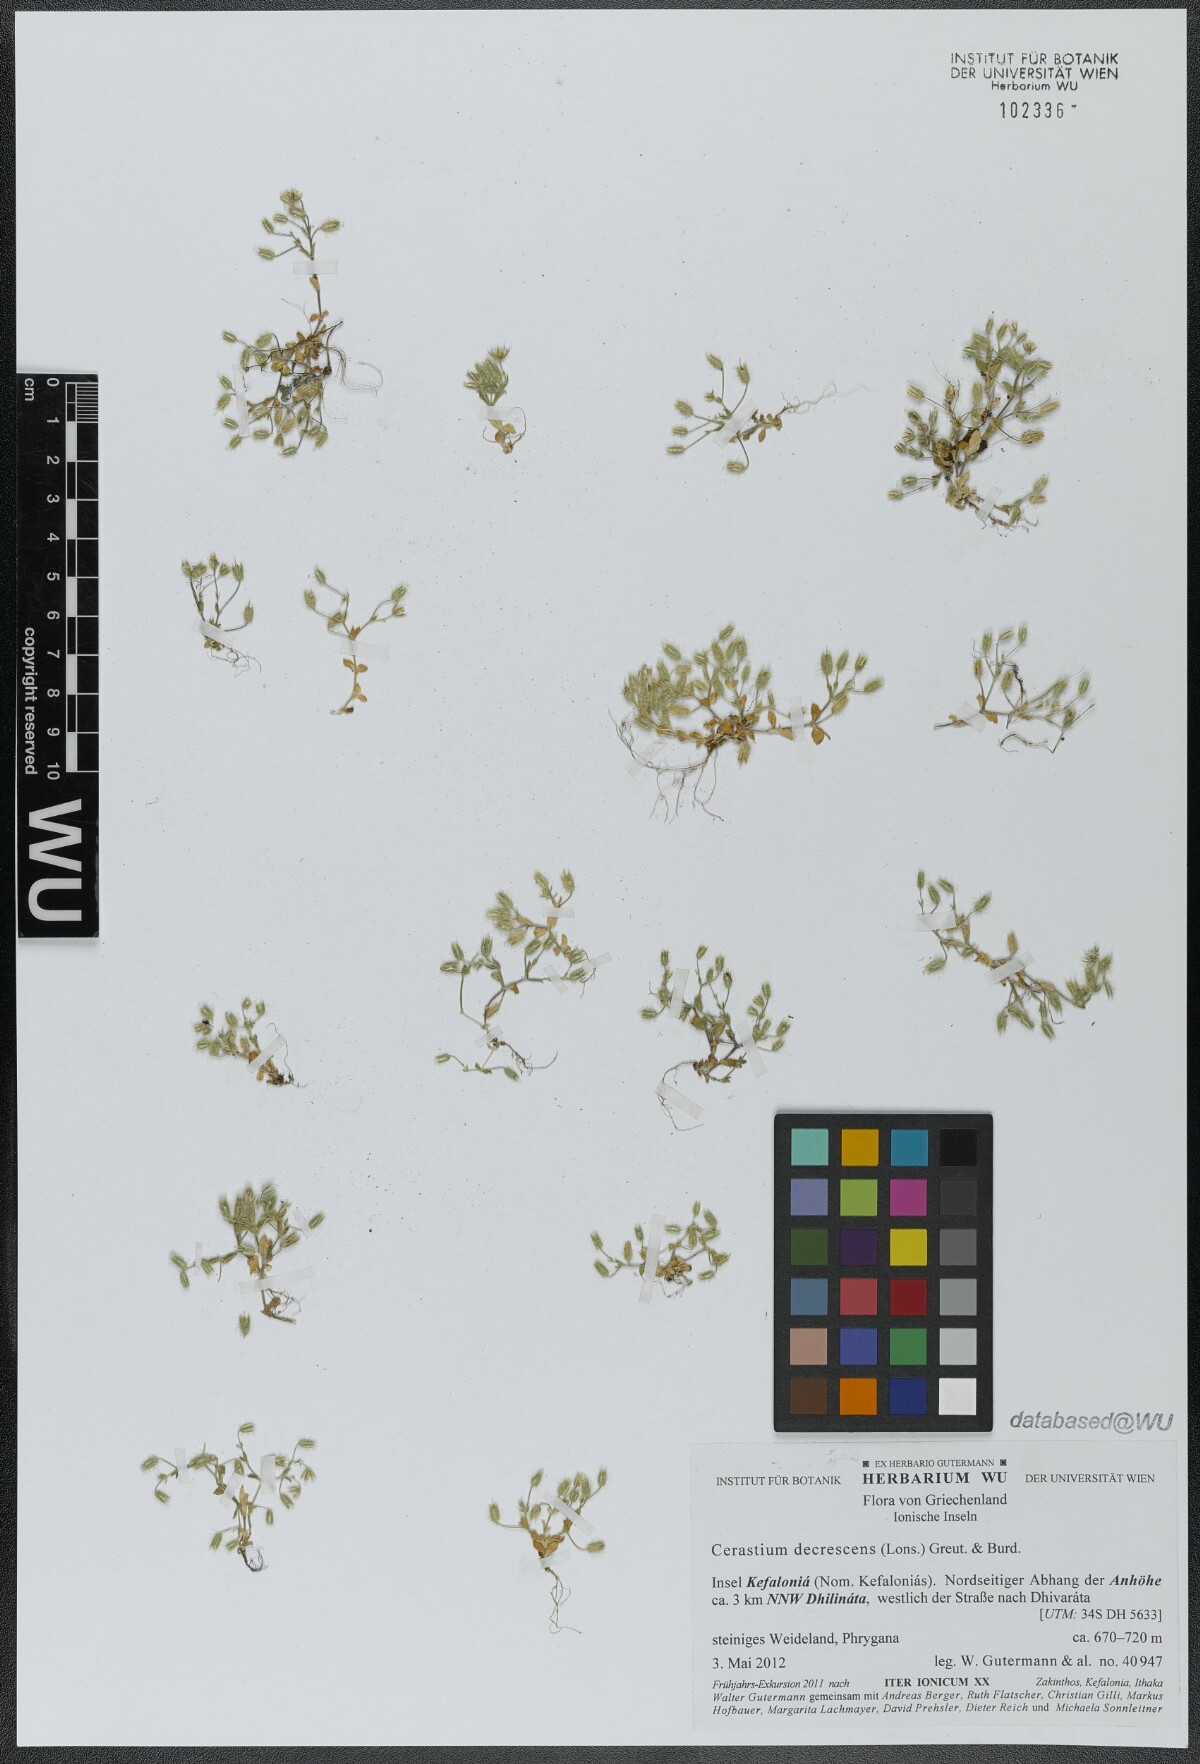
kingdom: Plantae
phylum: Tracheophyta
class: Magnoliopsida
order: Caryophyllales
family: Caryophyllaceae
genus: Cerastium
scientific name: Cerastium illyricum
